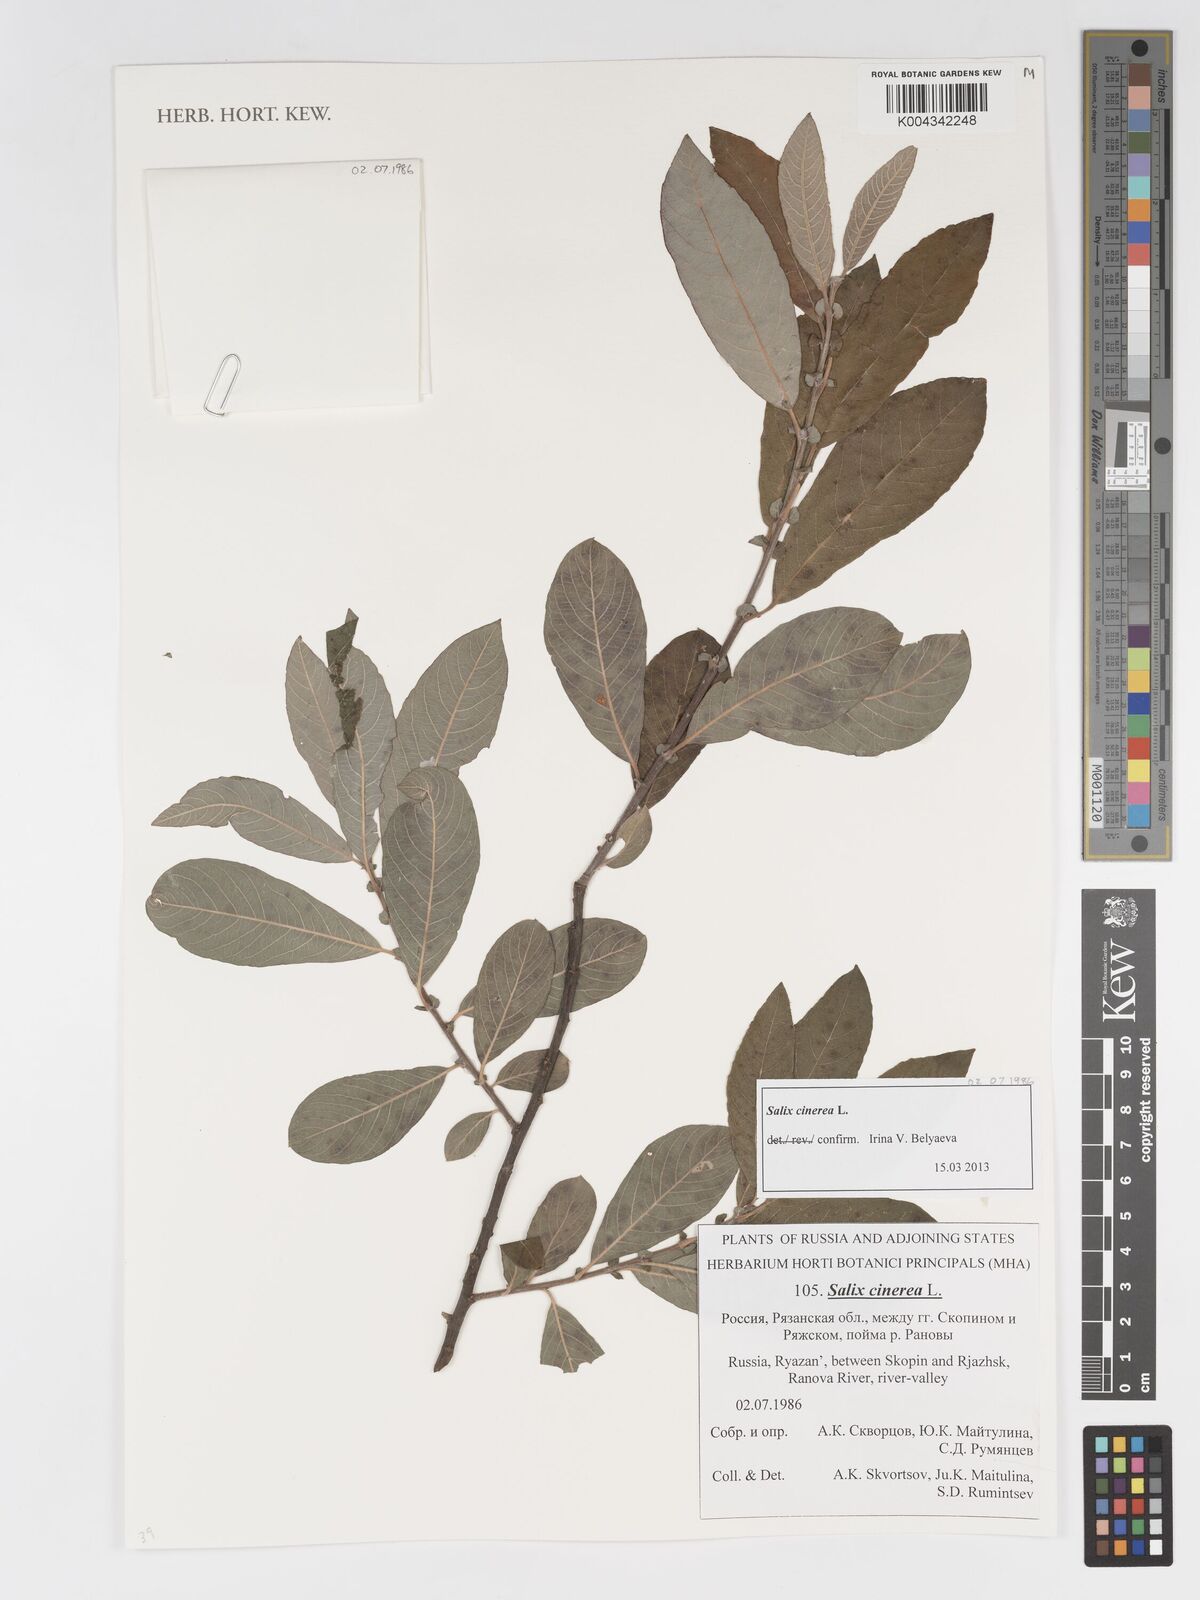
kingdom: Plantae
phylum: Tracheophyta
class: Magnoliopsida
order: Malpighiales
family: Salicaceae
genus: Salix
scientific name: Salix
